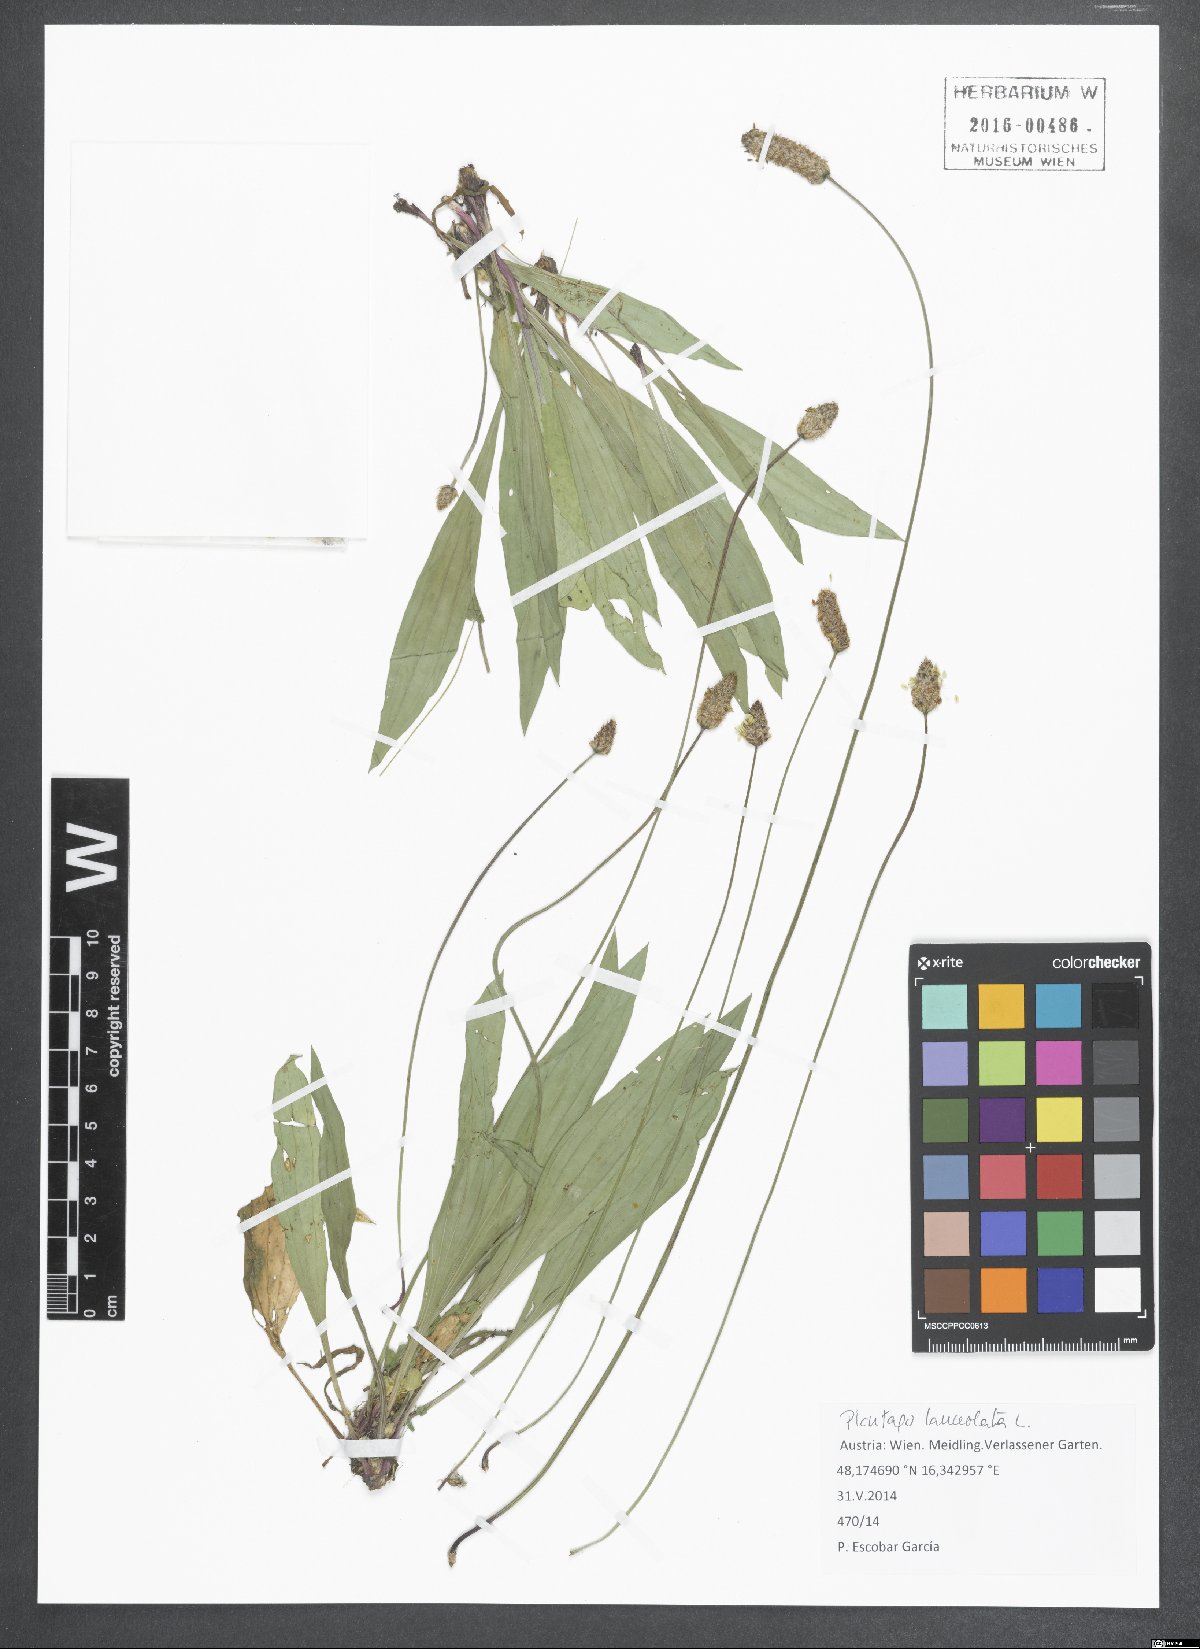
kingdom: Plantae
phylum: Tracheophyta
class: Magnoliopsida
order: Lamiales
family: Plantaginaceae
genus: Plantago
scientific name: Plantago lanceolata
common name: Ribwort plantain
